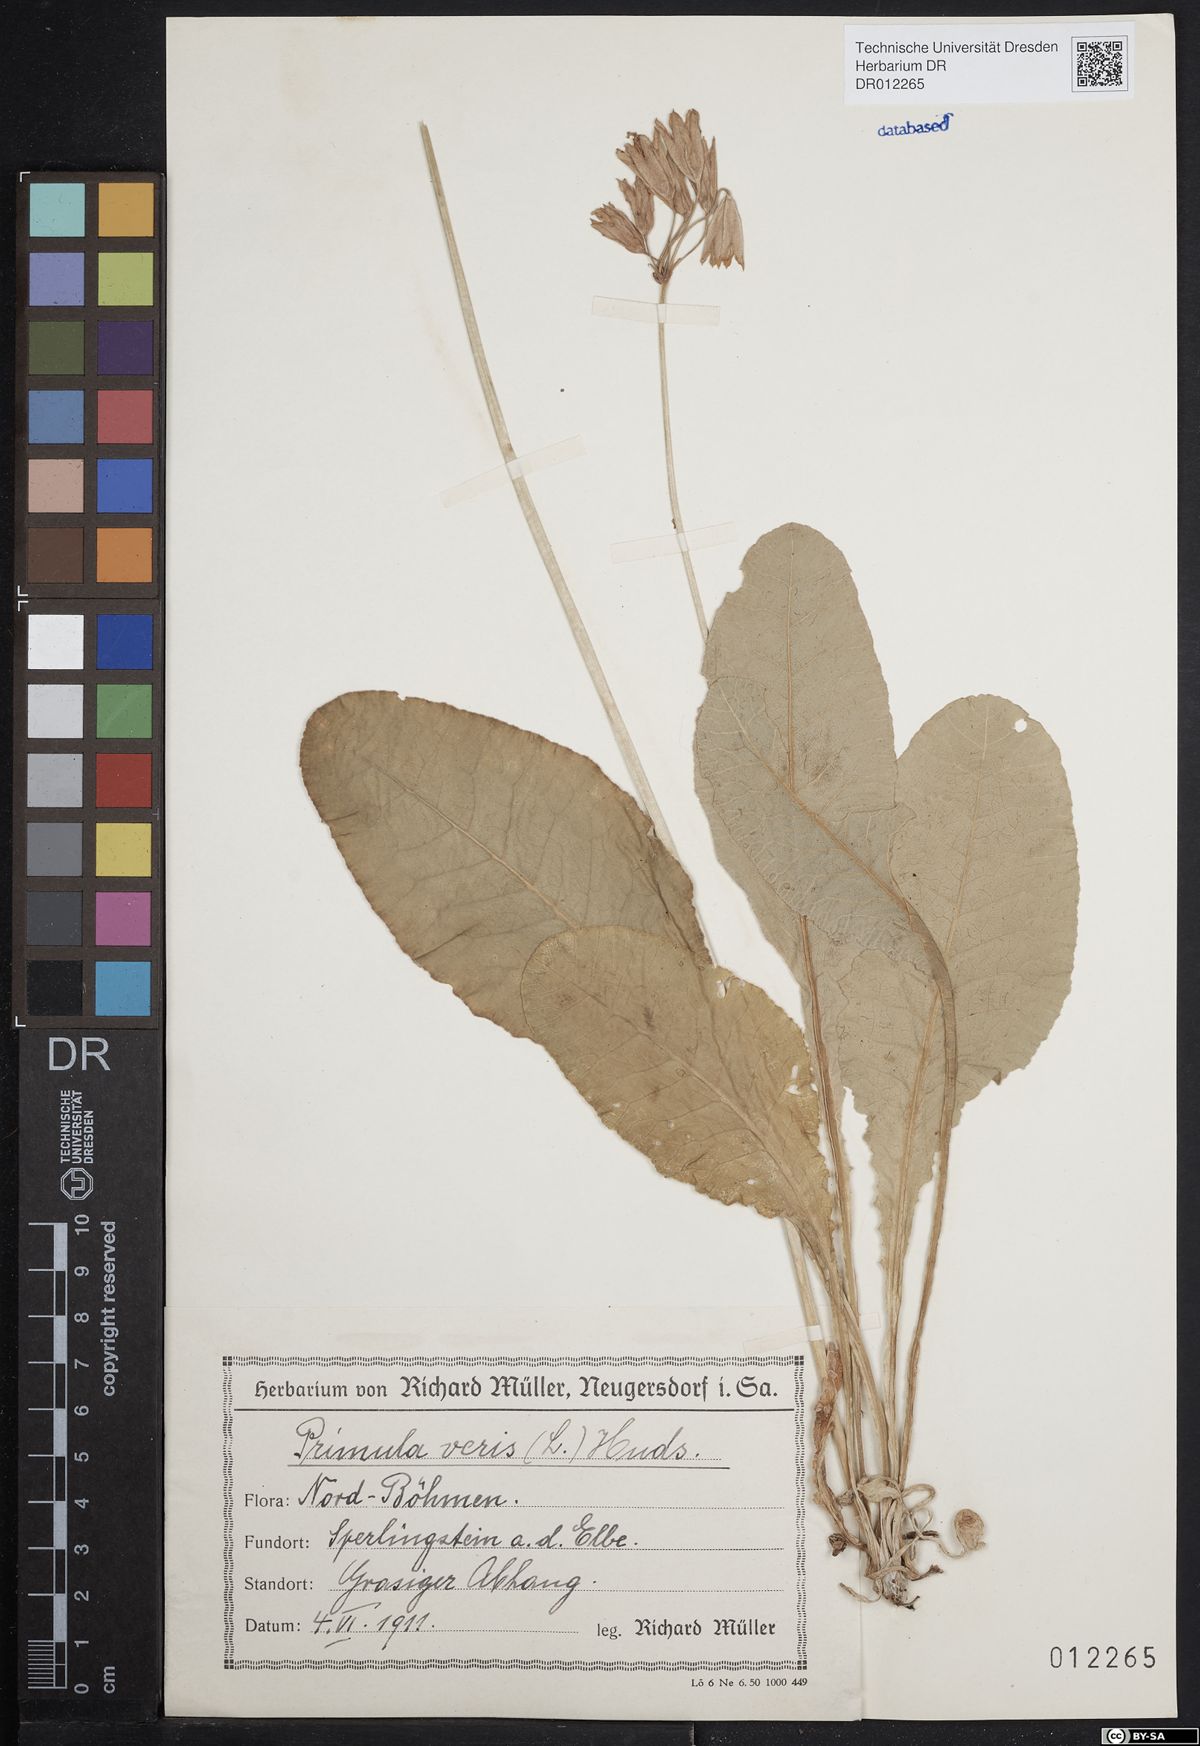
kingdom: Plantae
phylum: Tracheophyta
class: Magnoliopsida
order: Ericales
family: Primulaceae
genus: Primula
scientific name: Primula veris
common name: Cowslip
